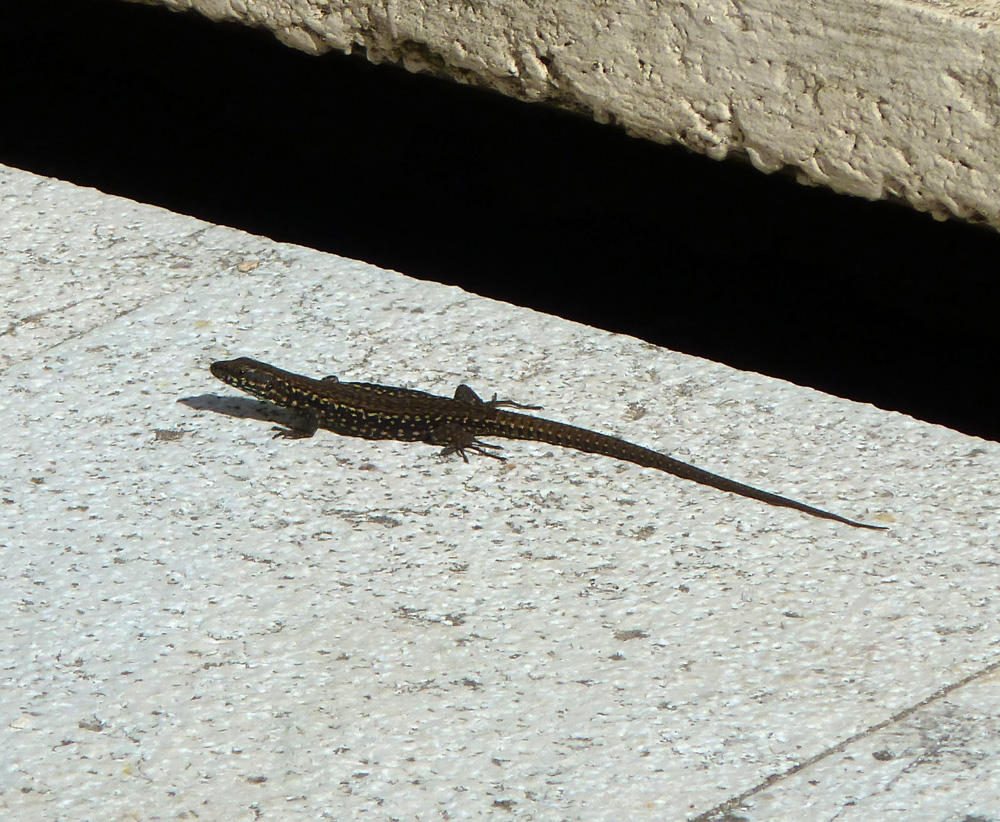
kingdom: Animalia
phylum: Chordata
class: Squamata
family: Lacertidae
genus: Podarcis
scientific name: Podarcis muralis
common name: Common wall lizard
